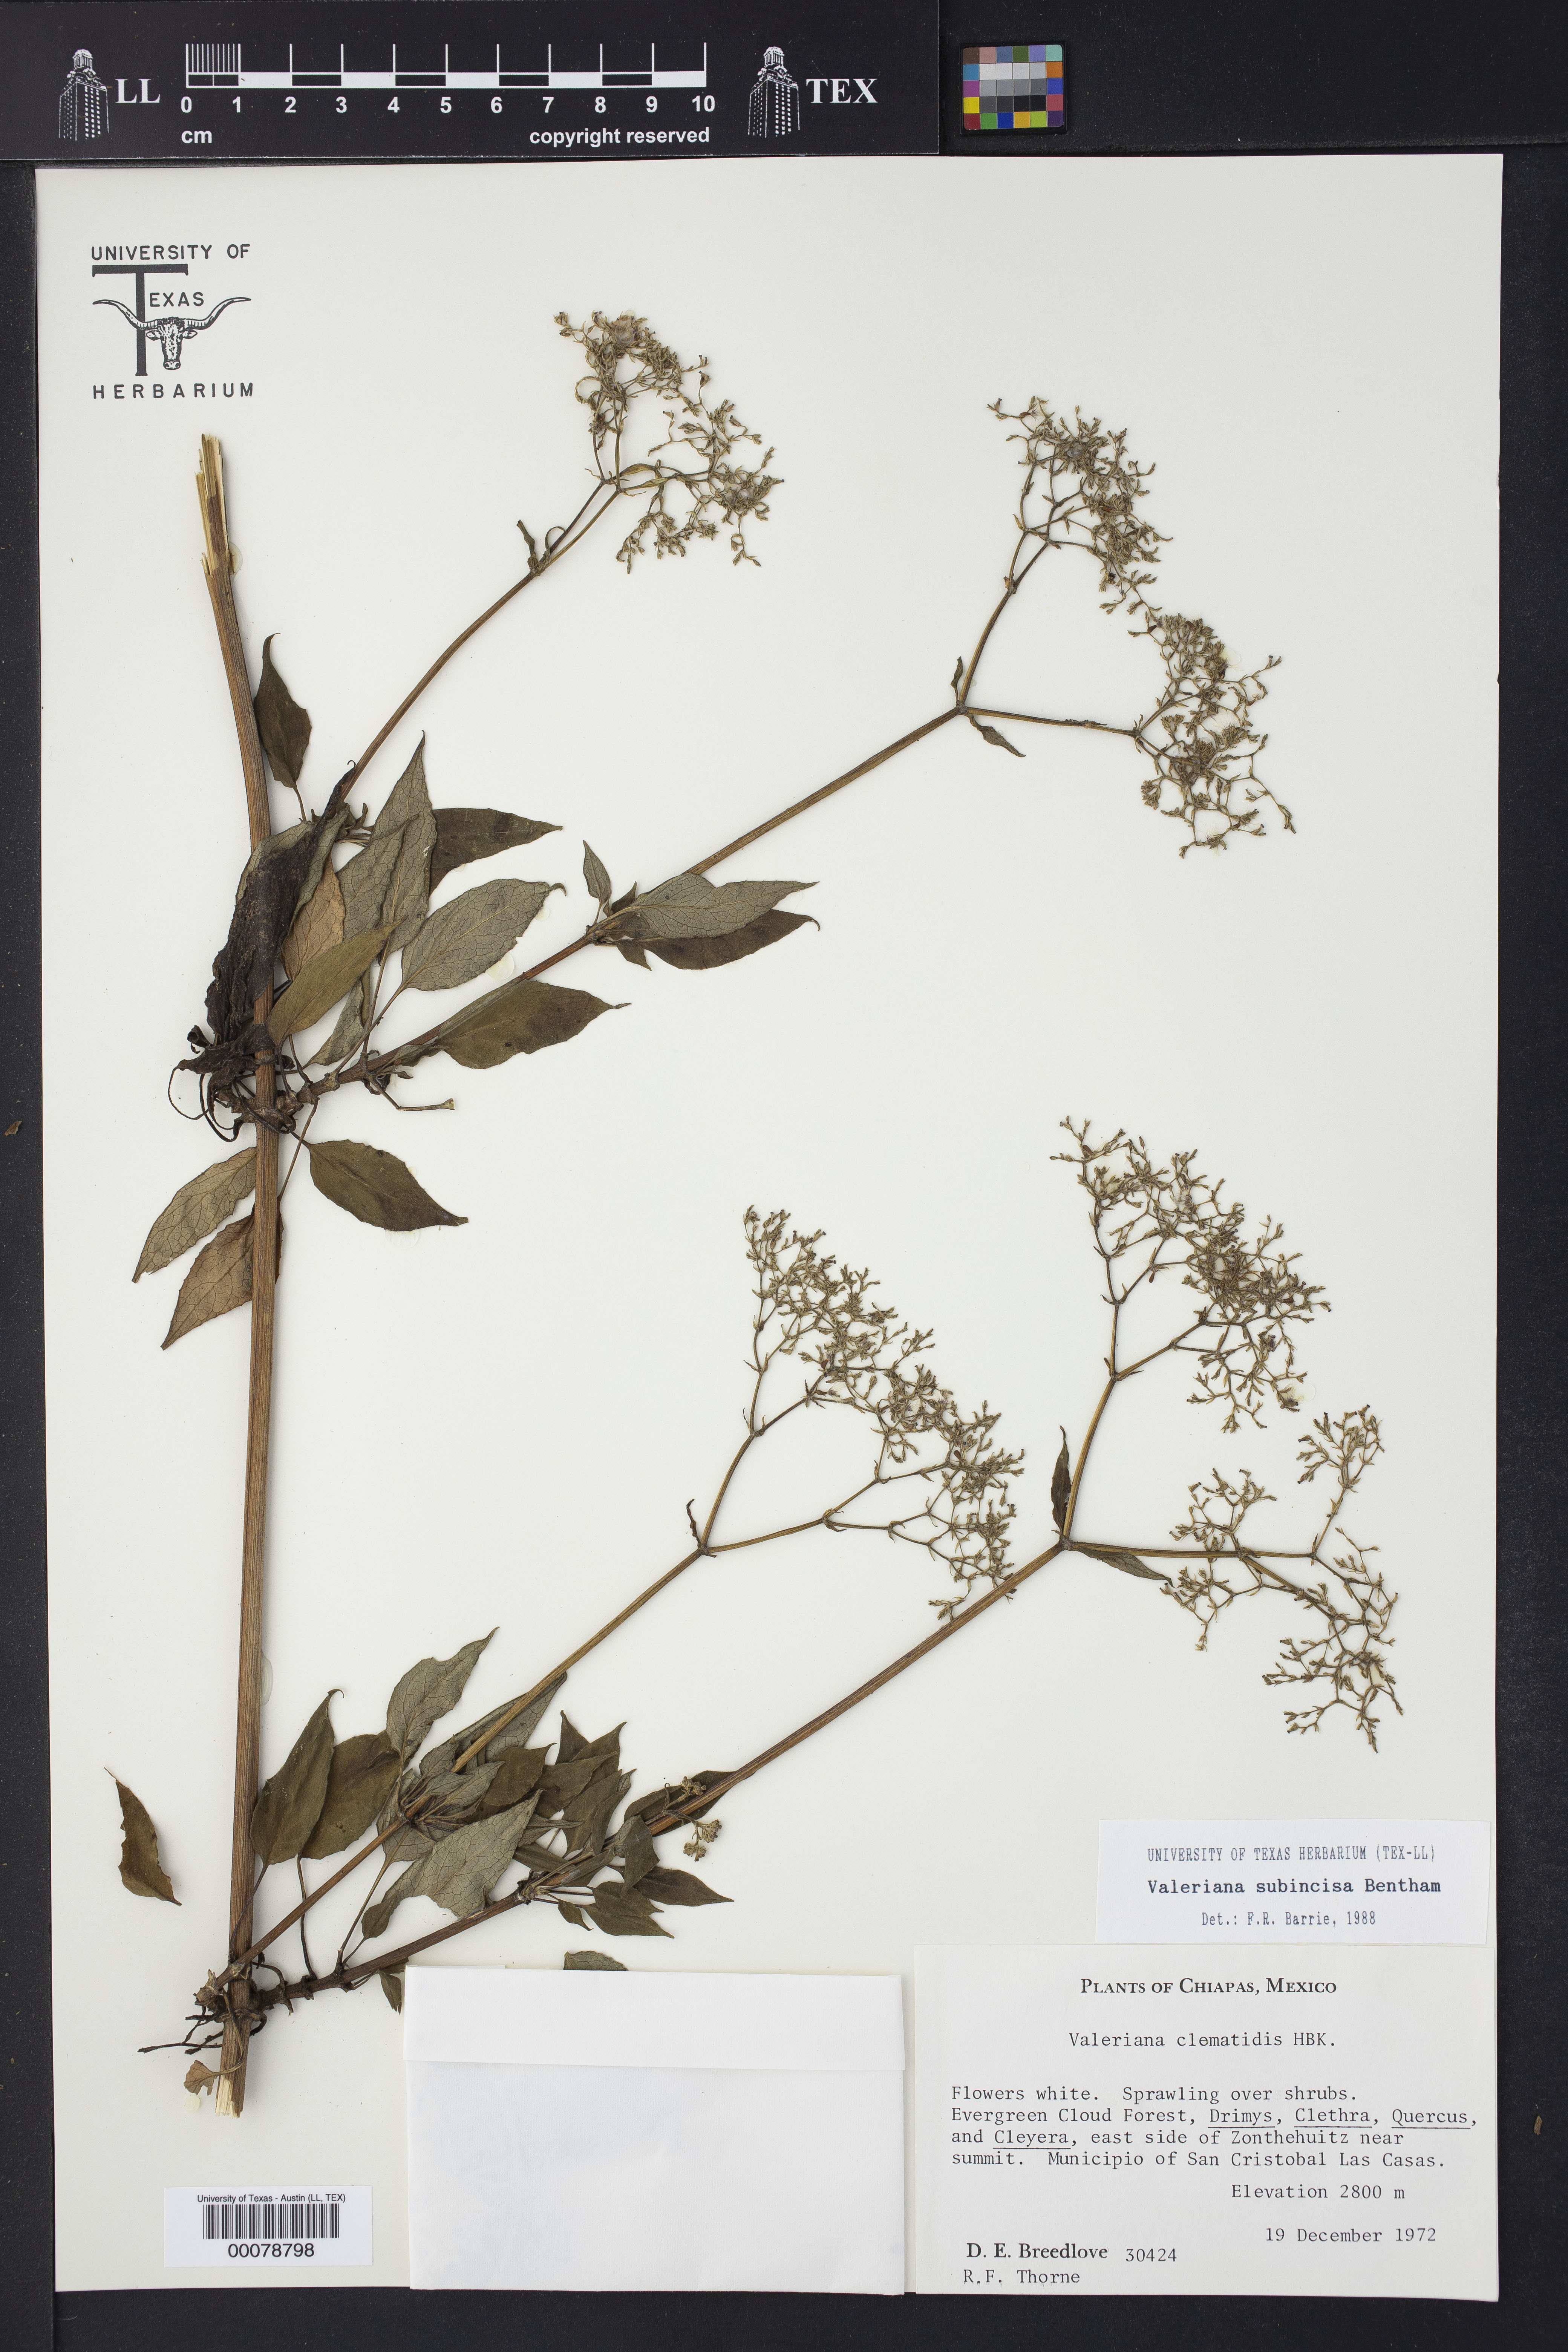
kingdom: Plantae
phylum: Tracheophyta
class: Magnoliopsida
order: Dipsacales
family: Caprifoliaceae
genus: Valeriana
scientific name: Valeriana subincisa
